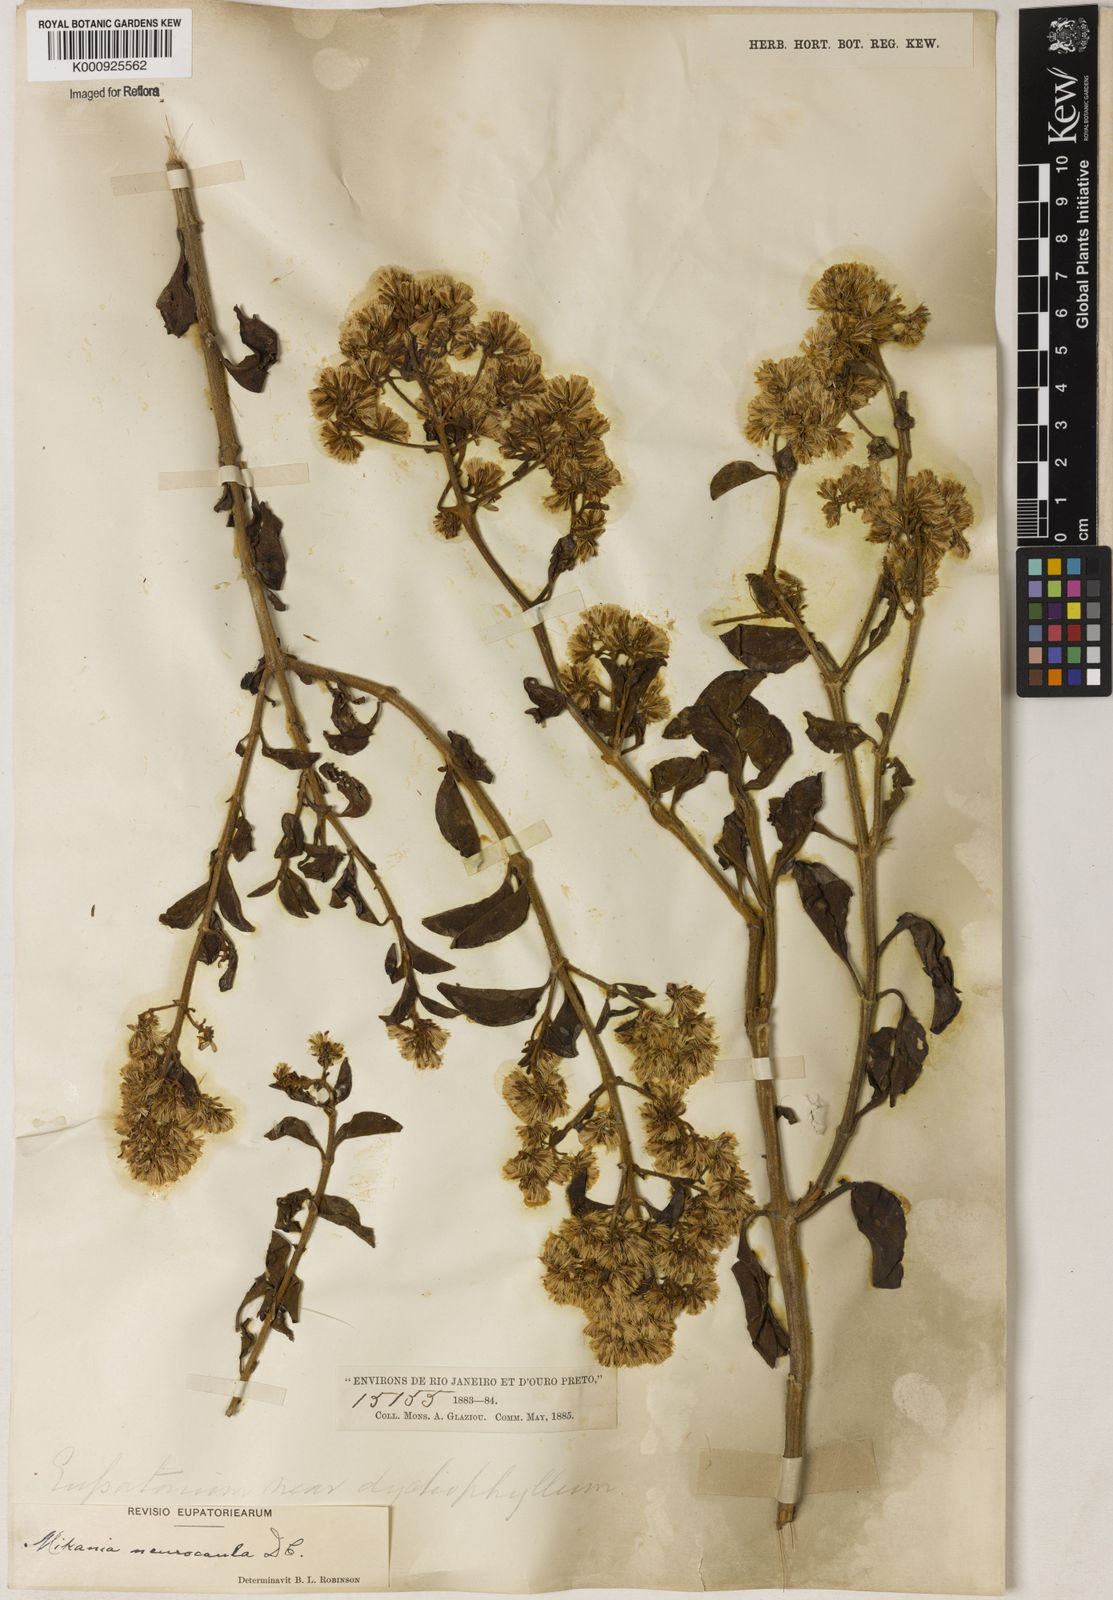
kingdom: Plantae
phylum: Tracheophyta
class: Magnoliopsida
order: Asterales
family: Asteraceae
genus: Mikania
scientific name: Mikania neurocaula
